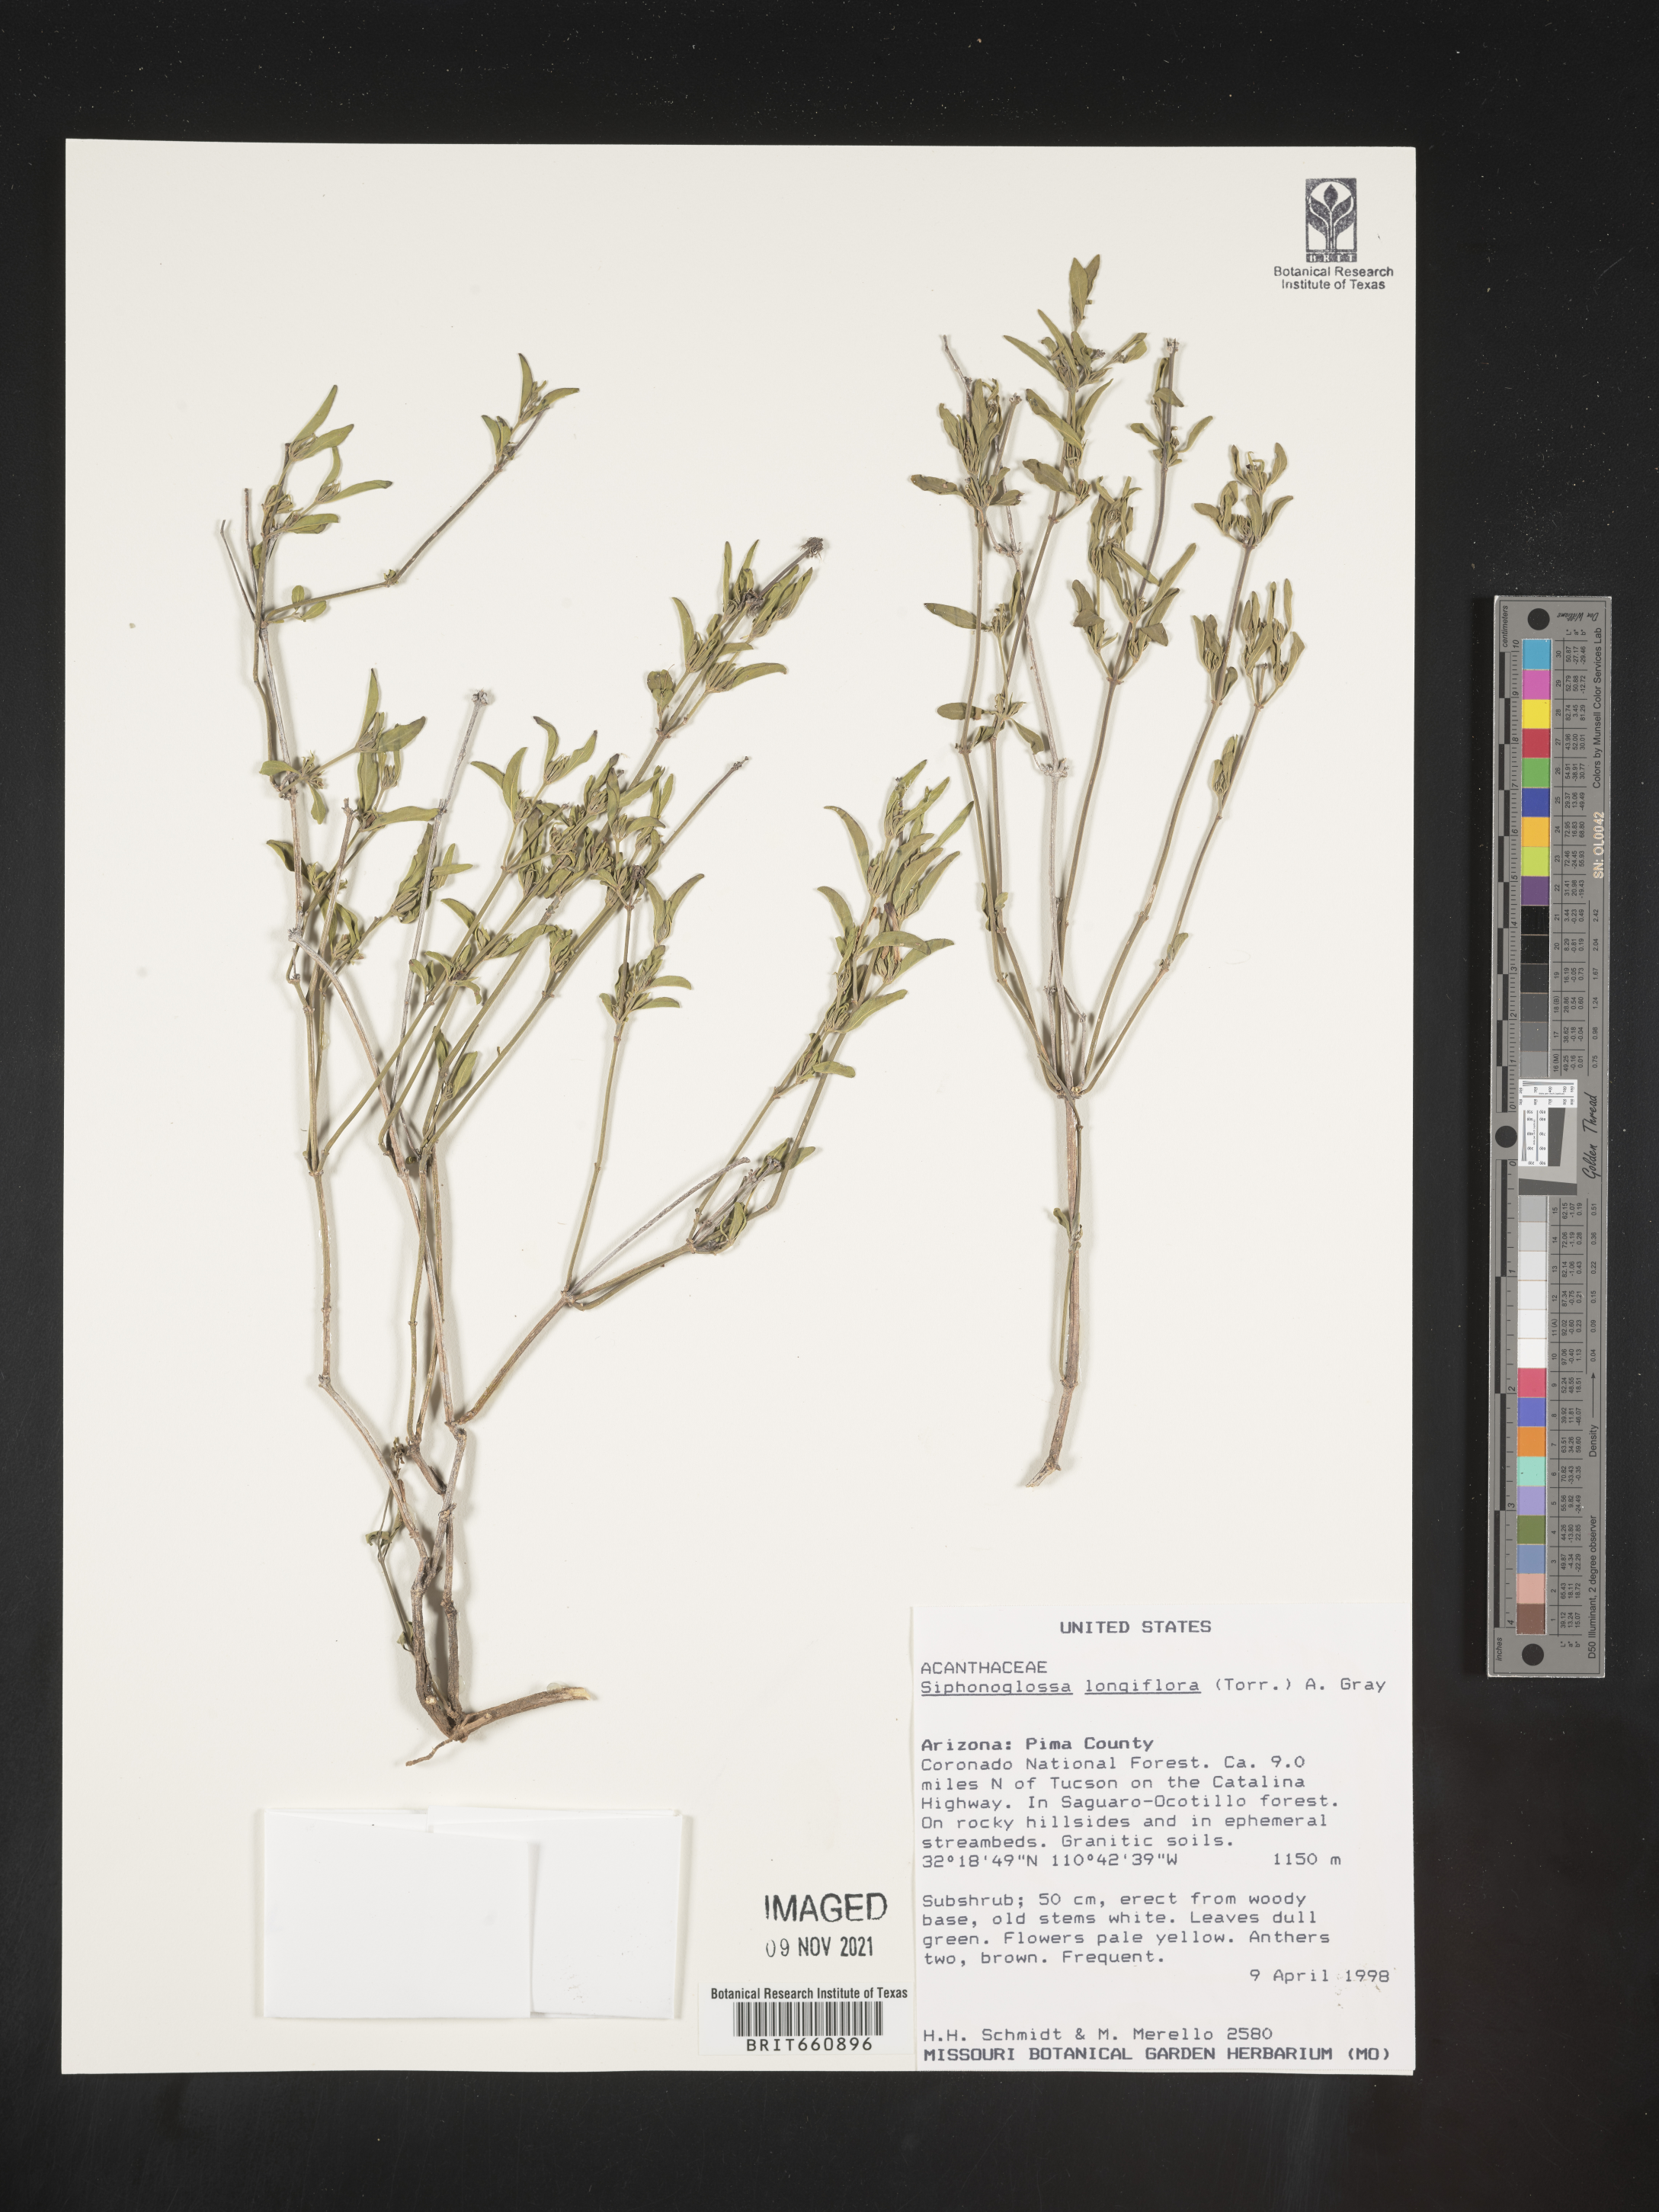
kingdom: Plantae
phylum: Tracheophyta
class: Magnoliopsida
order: Lamiales
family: Acanthaceae
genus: Justicia
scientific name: Justicia
